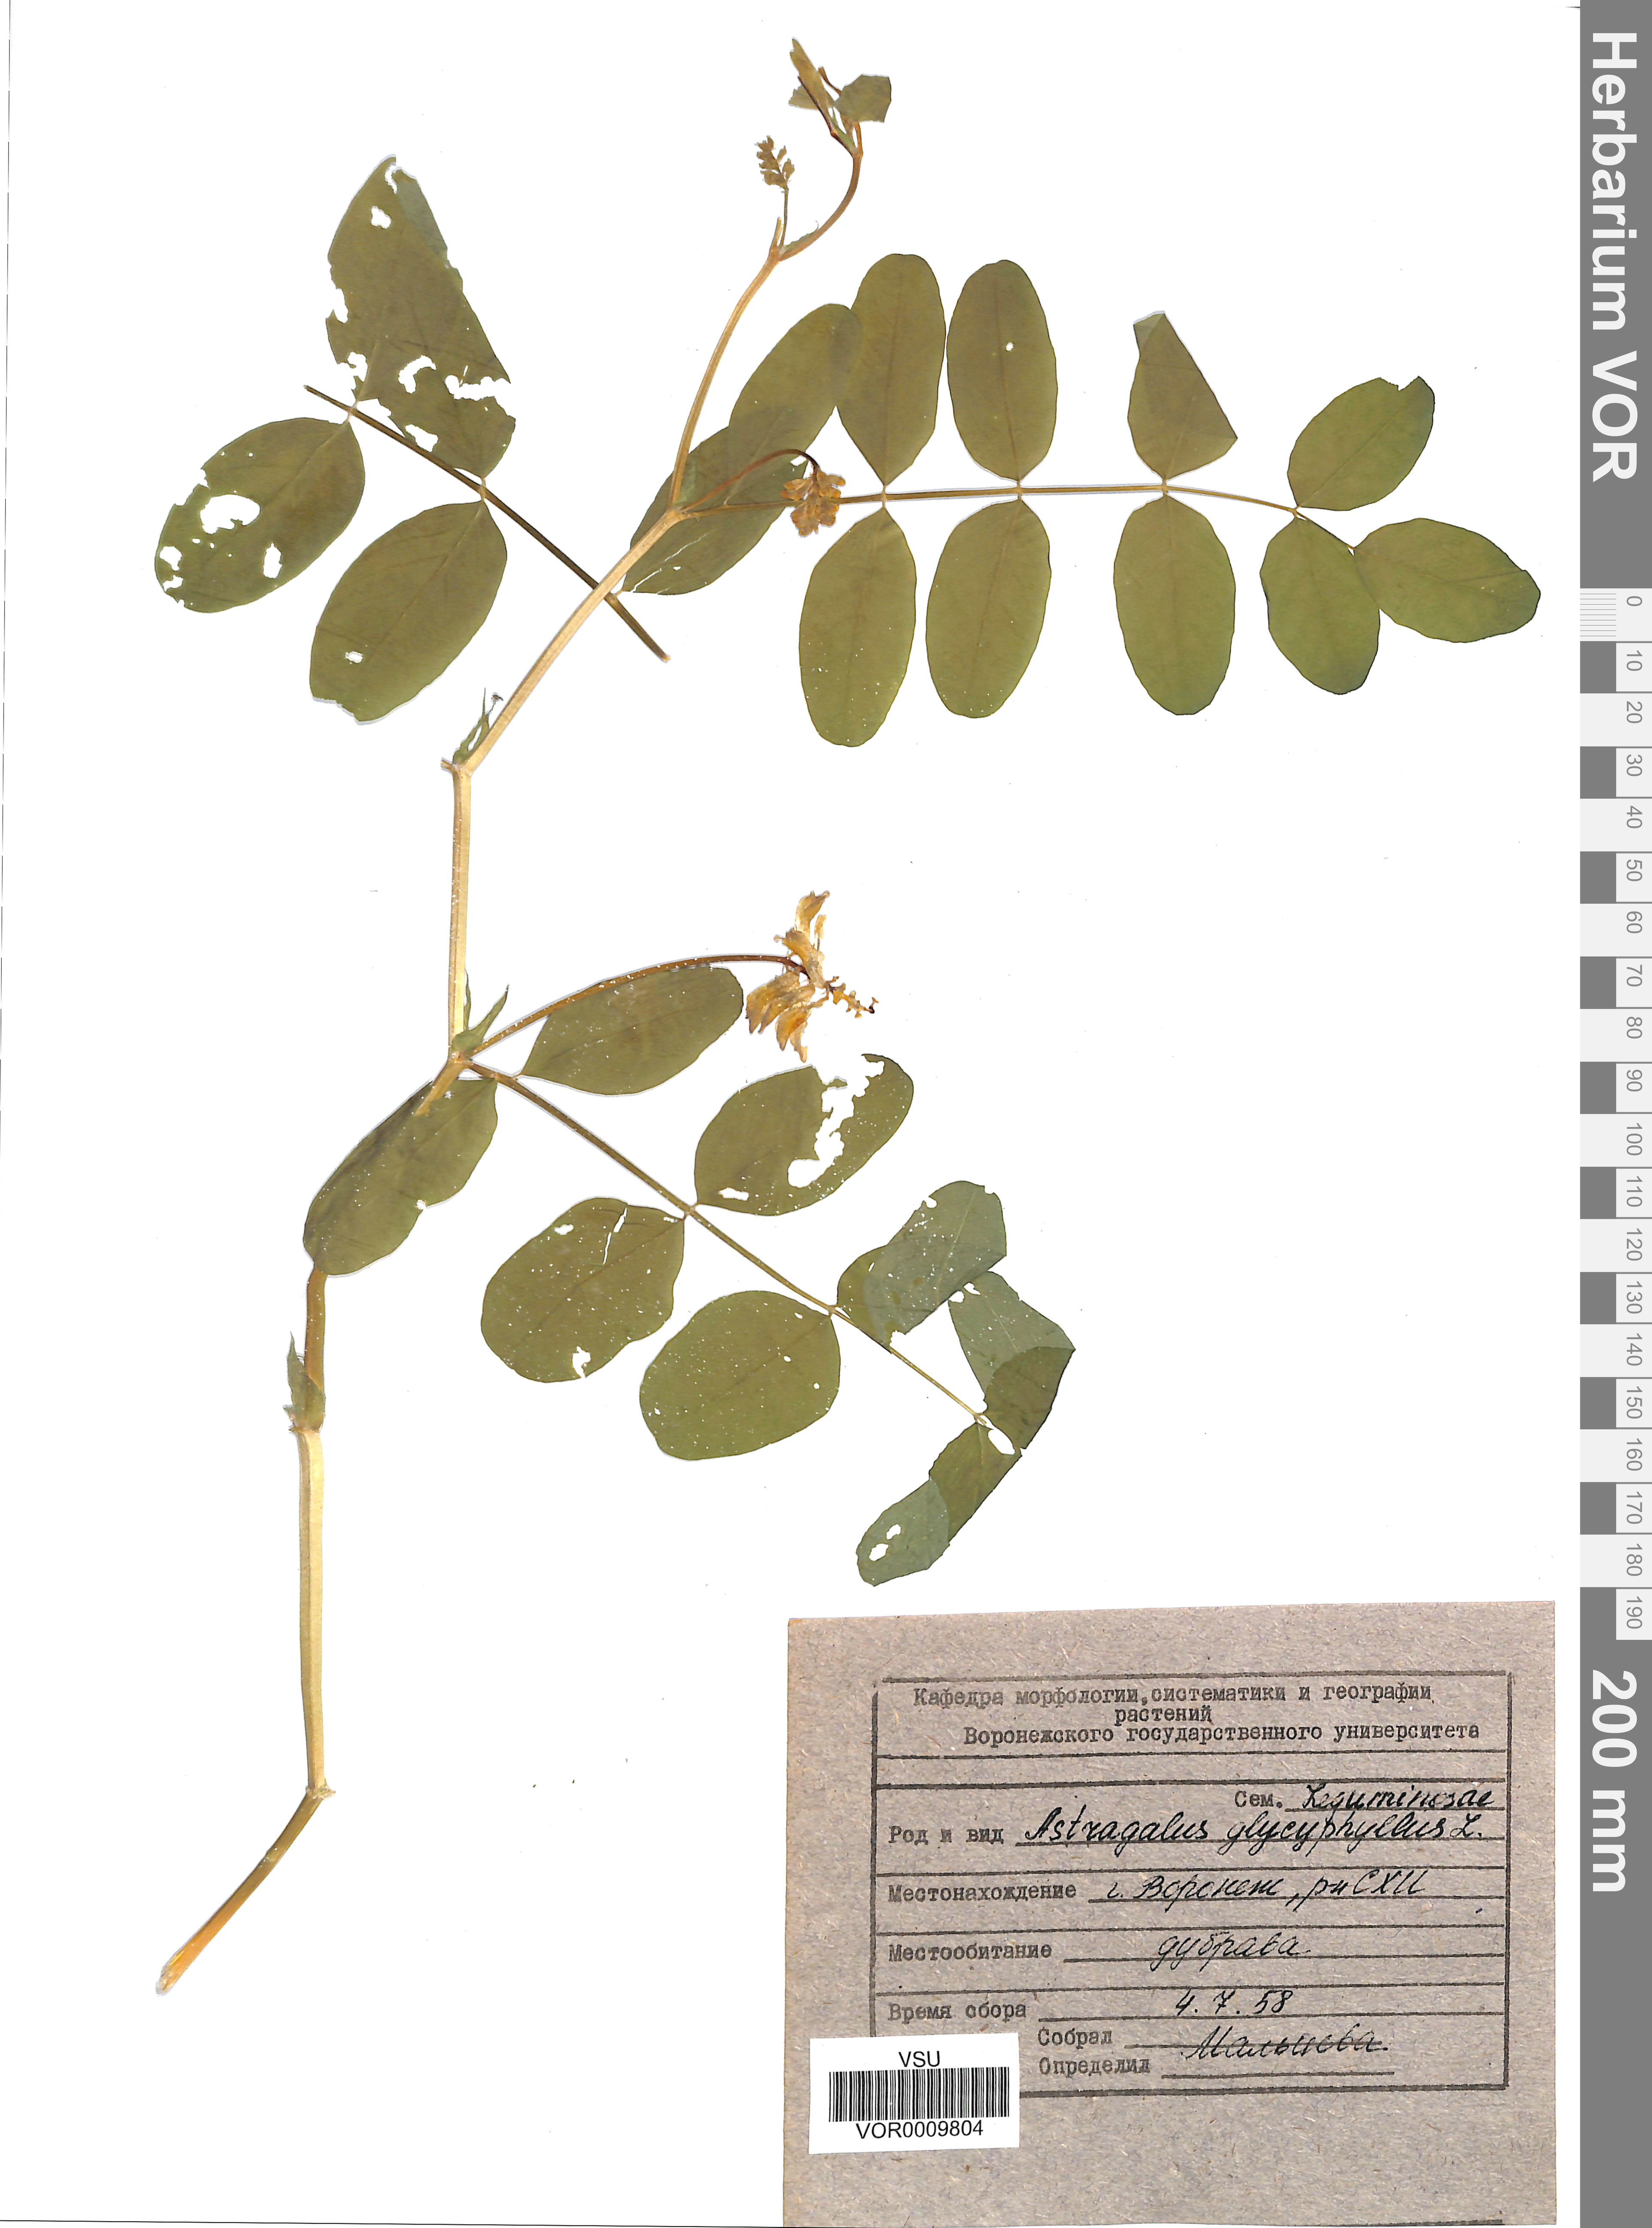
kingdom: Plantae
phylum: Tracheophyta
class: Magnoliopsida
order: Fabales
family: Fabaceae
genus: Astragalus
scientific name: Astragalus glycyphyllos
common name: Wild liquorice
